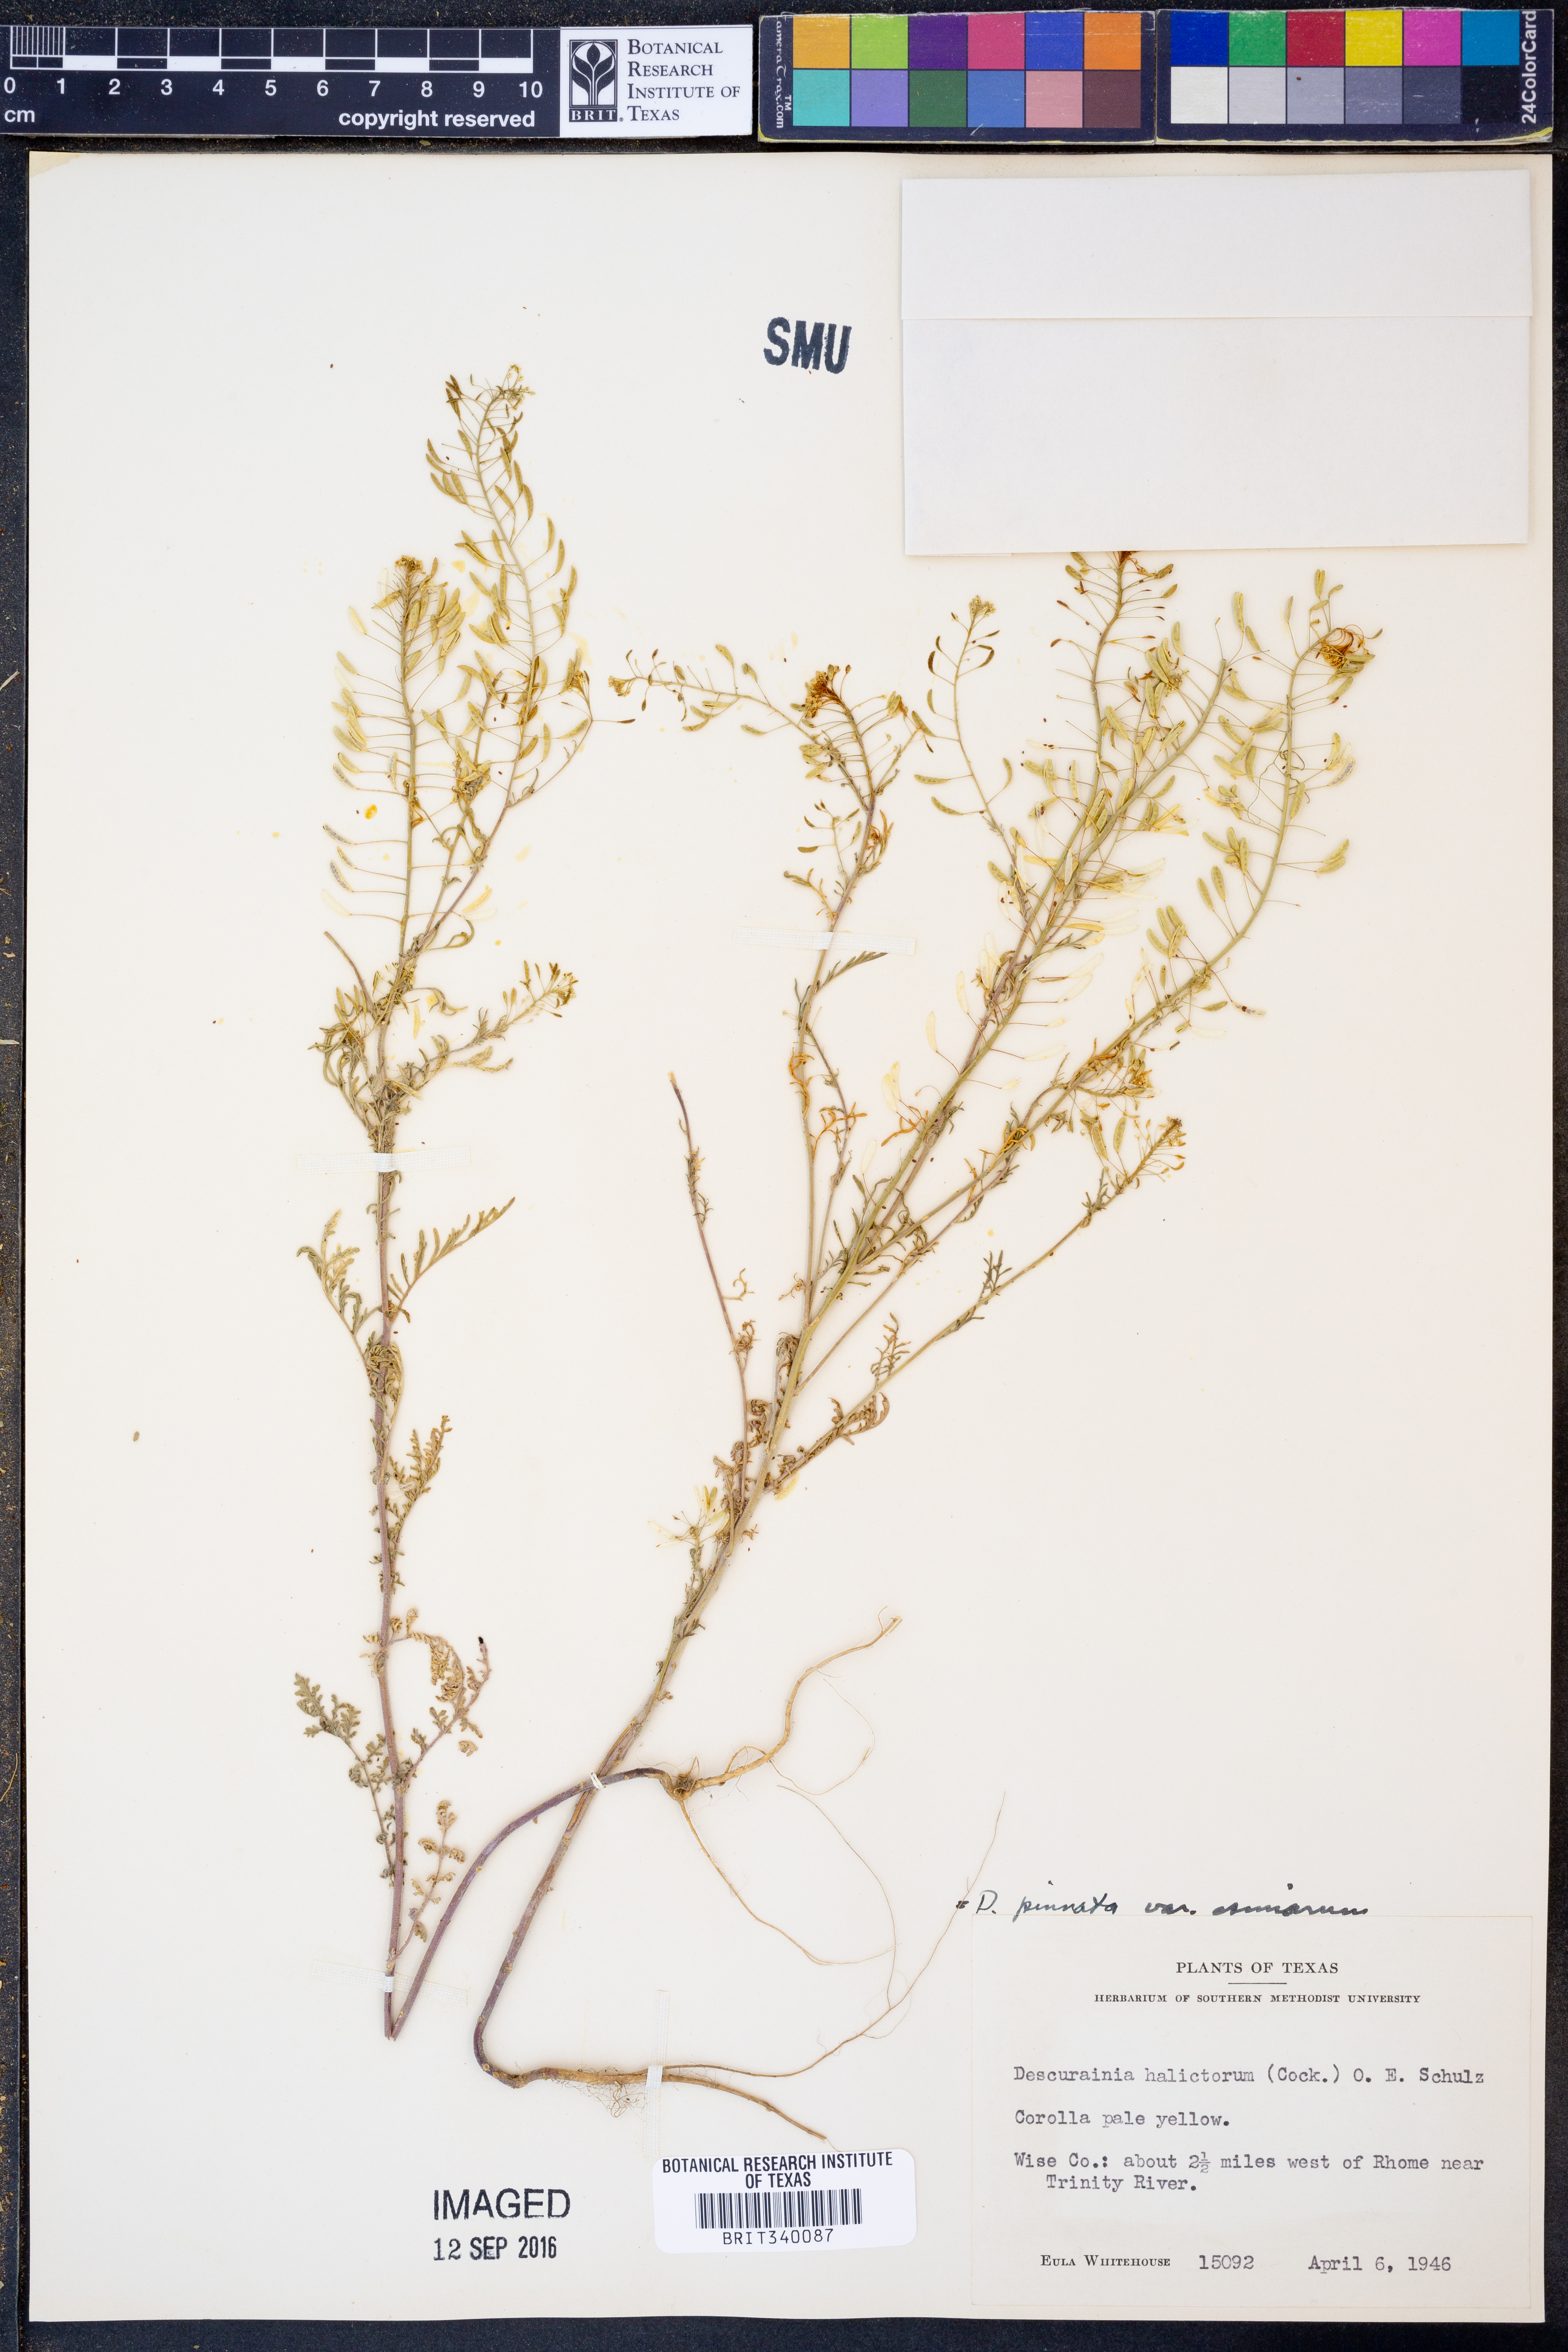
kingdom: Plantae
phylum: Tracheophyta
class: Magnoliopsida
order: Brassicales
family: Brassicaceae
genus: Descurainia
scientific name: Descurainia pinnata
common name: Western tansy mustard
